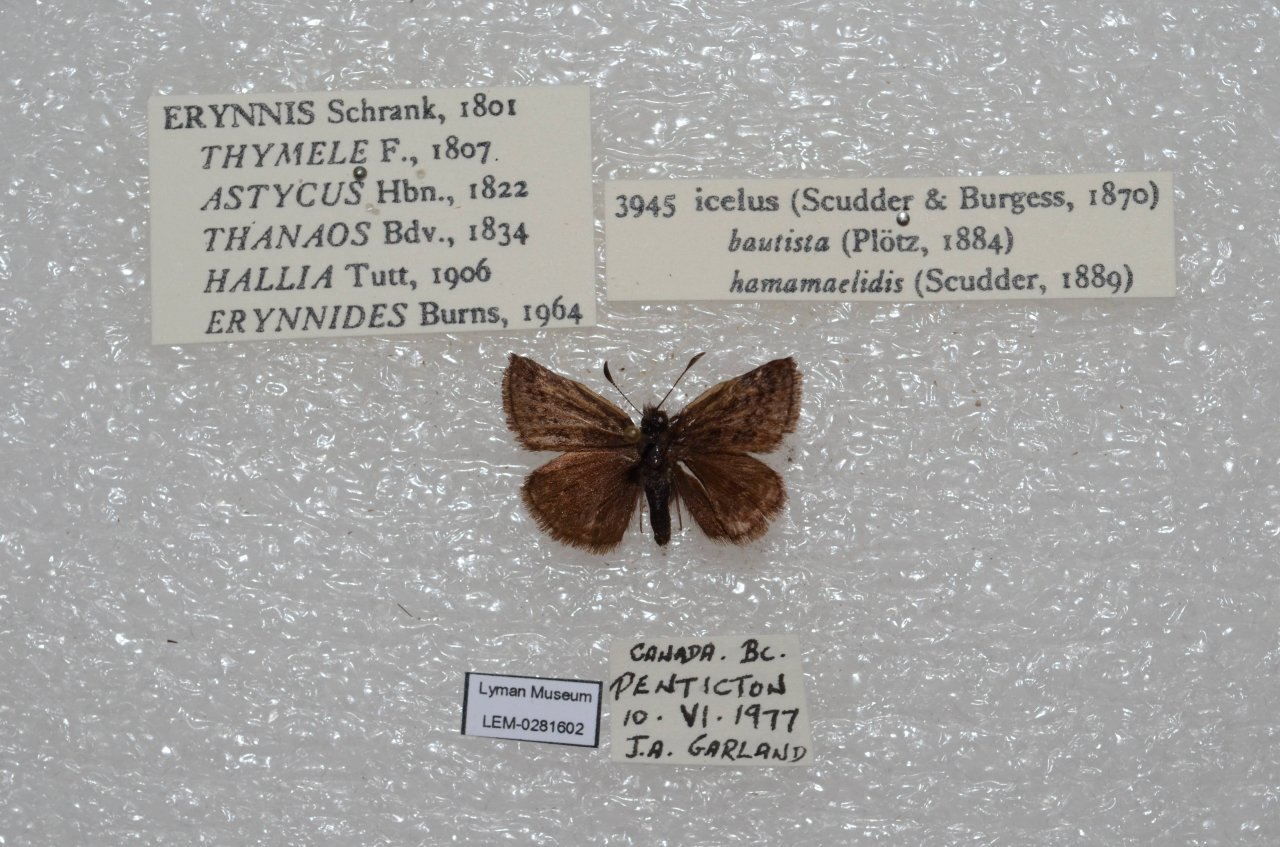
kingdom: Animalia
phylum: Arthropoda
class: Insecta
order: Lepidoptera
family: Hesperiidae
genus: Erynnis
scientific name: Erynnis icelus
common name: Dreamy Duskywing
